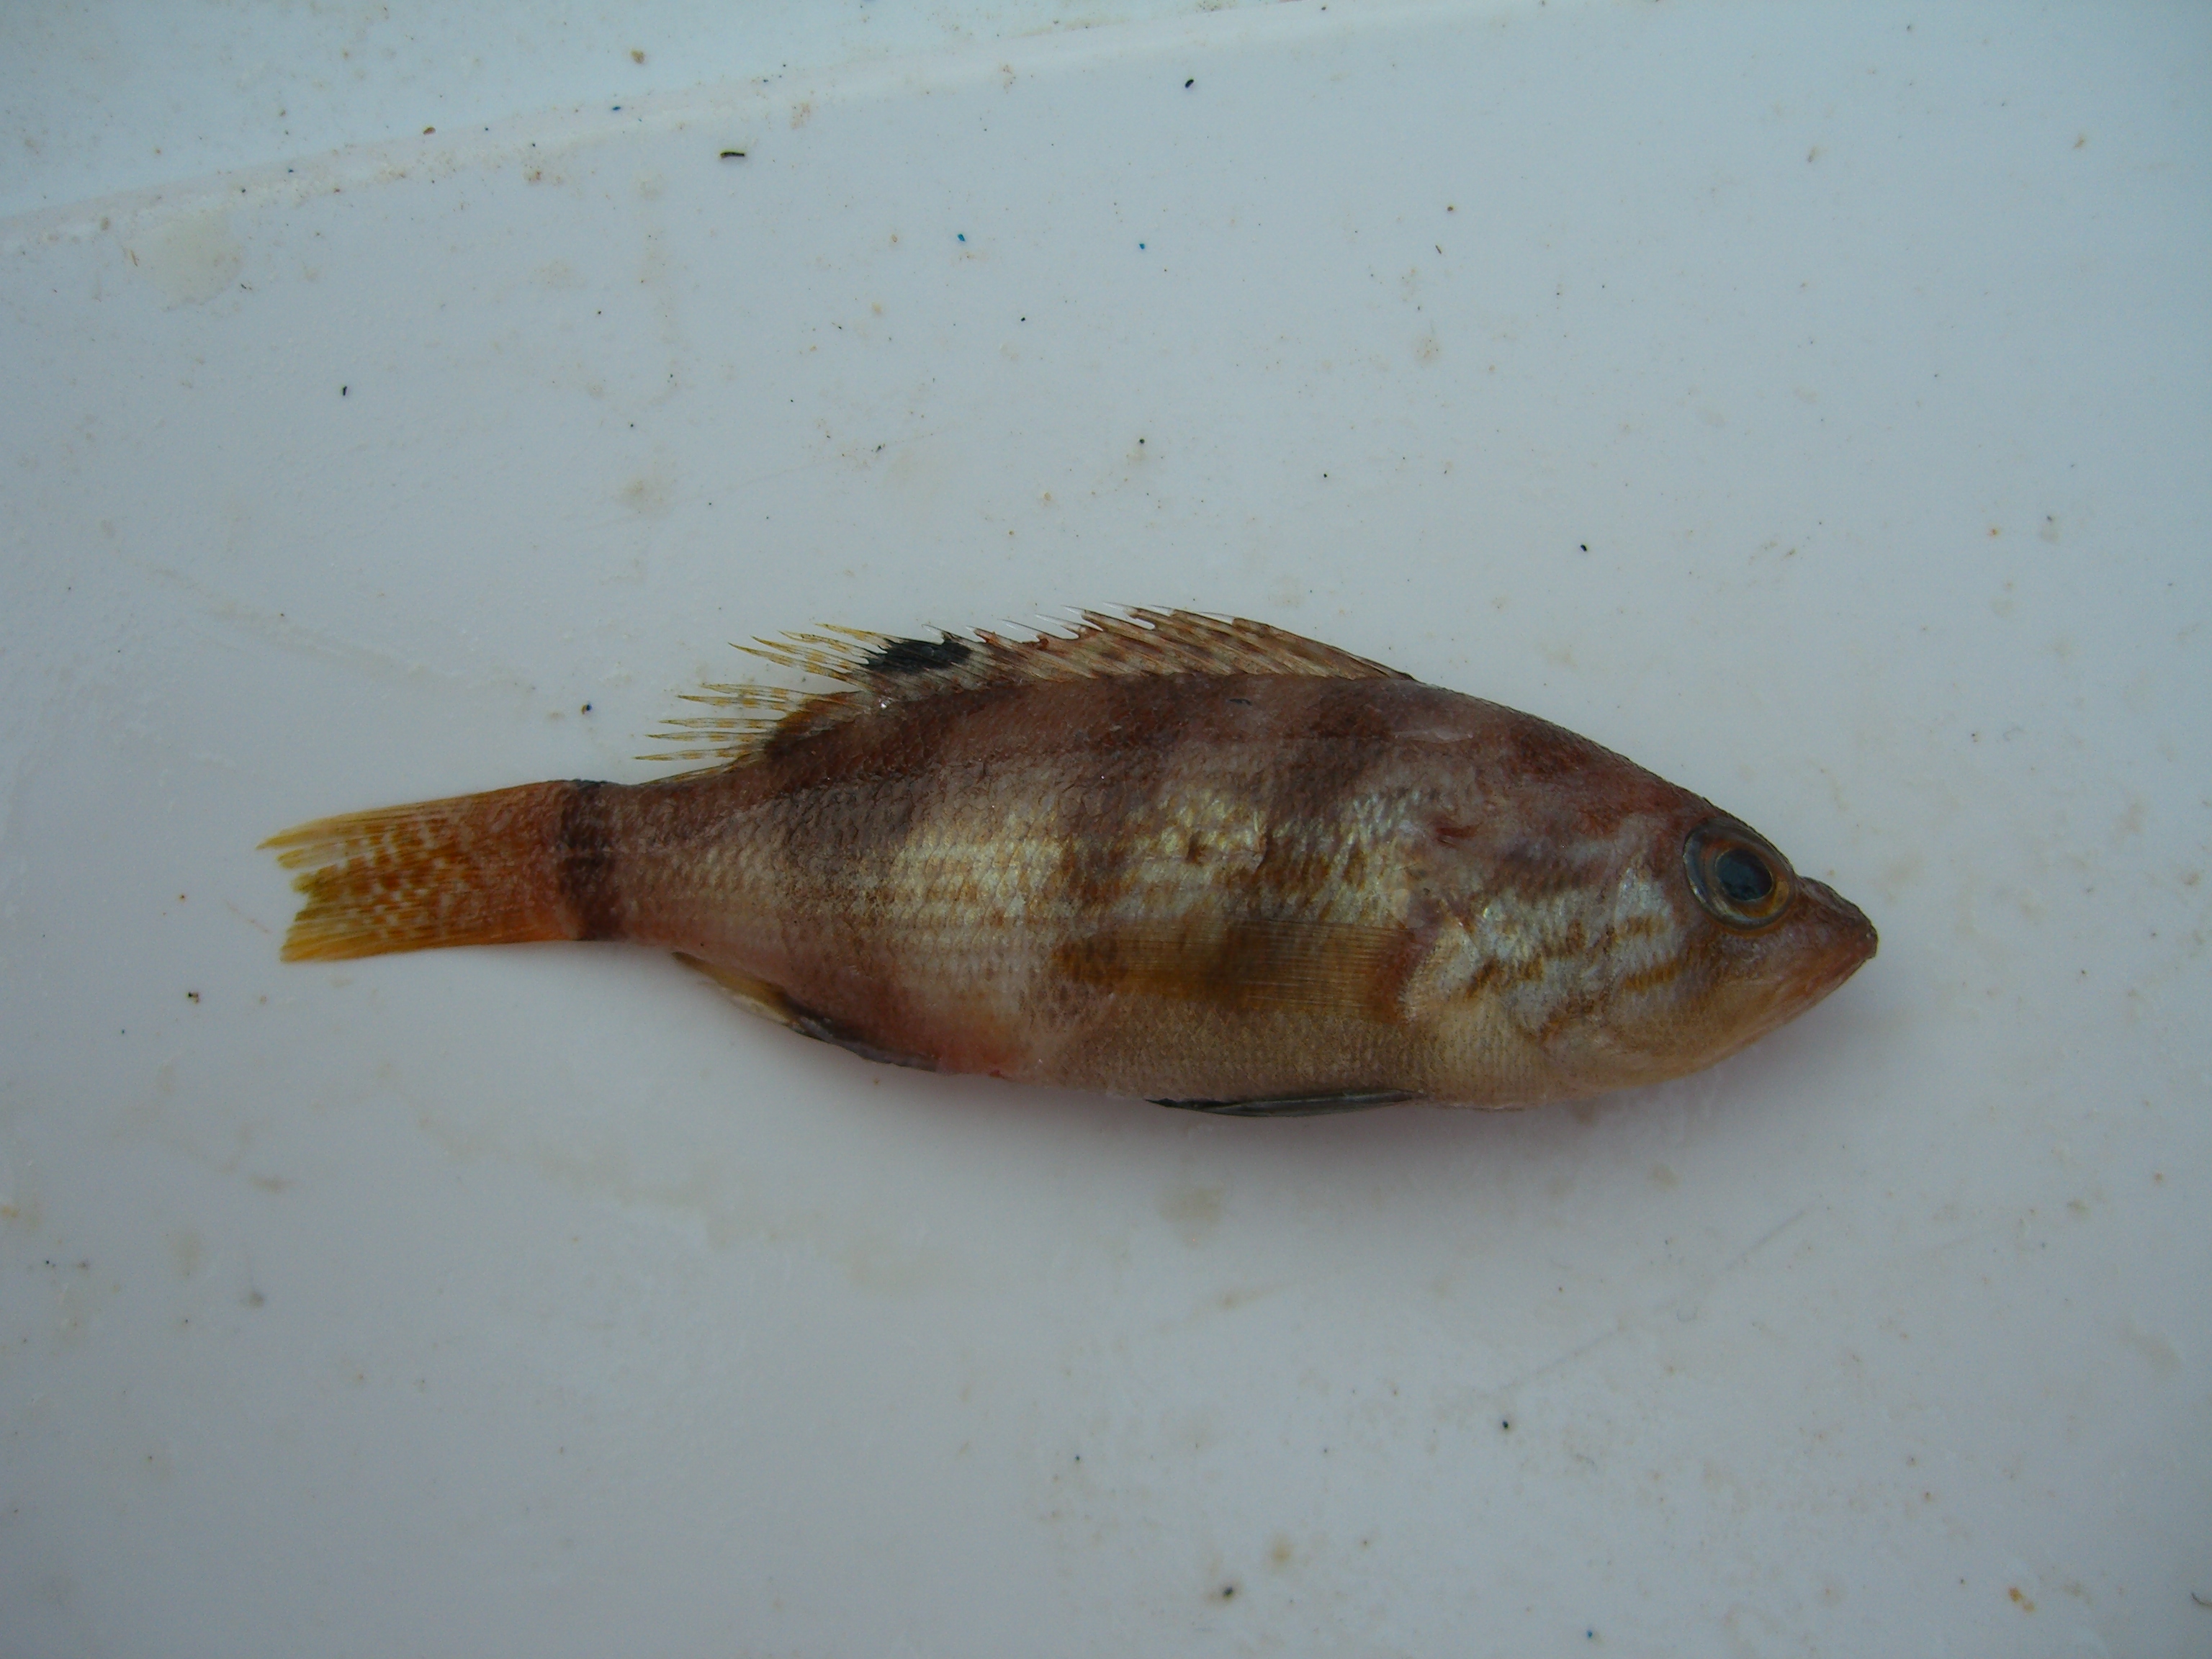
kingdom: Animalia
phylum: Chordata
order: Perciformes
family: Serranidae
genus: Serranus
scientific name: Serranus hepatus
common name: Brown comber
